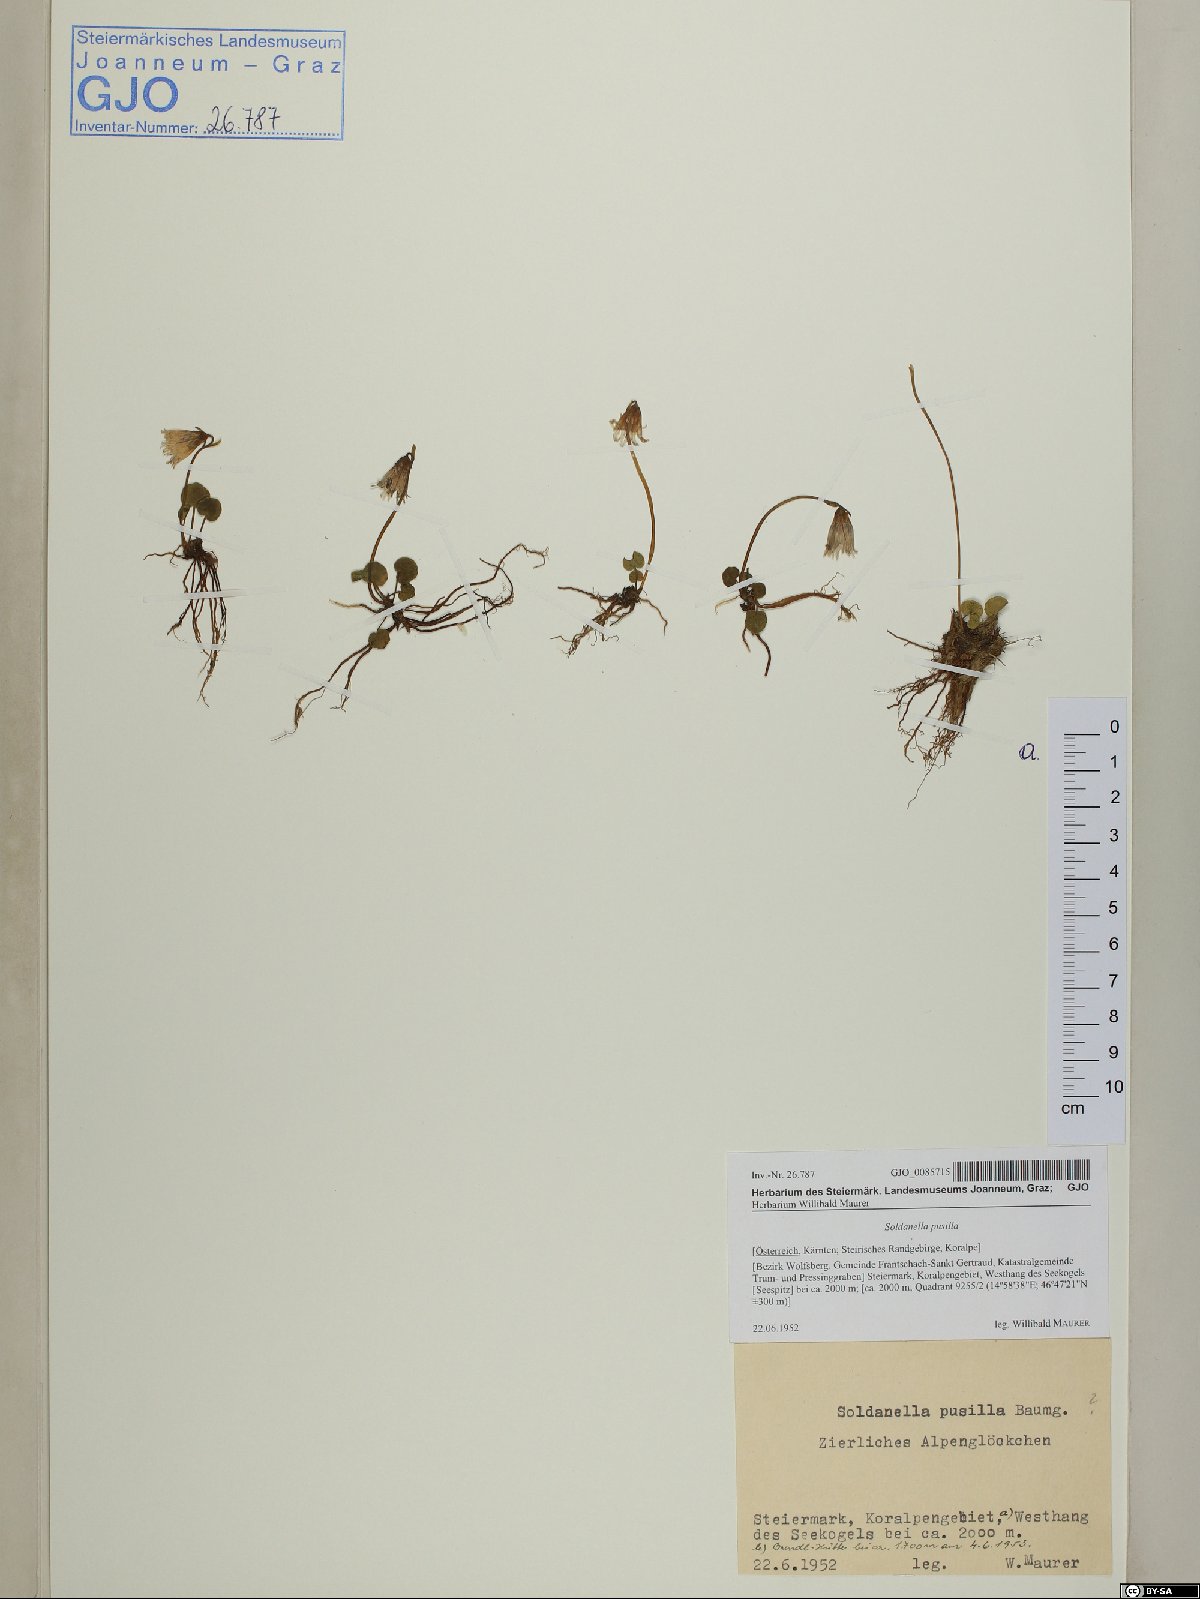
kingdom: Plantae
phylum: Tracheophyta
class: Magnoliopsida
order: Ericales
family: Primulaceae
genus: Soldanella
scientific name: Soldanella pusilla
